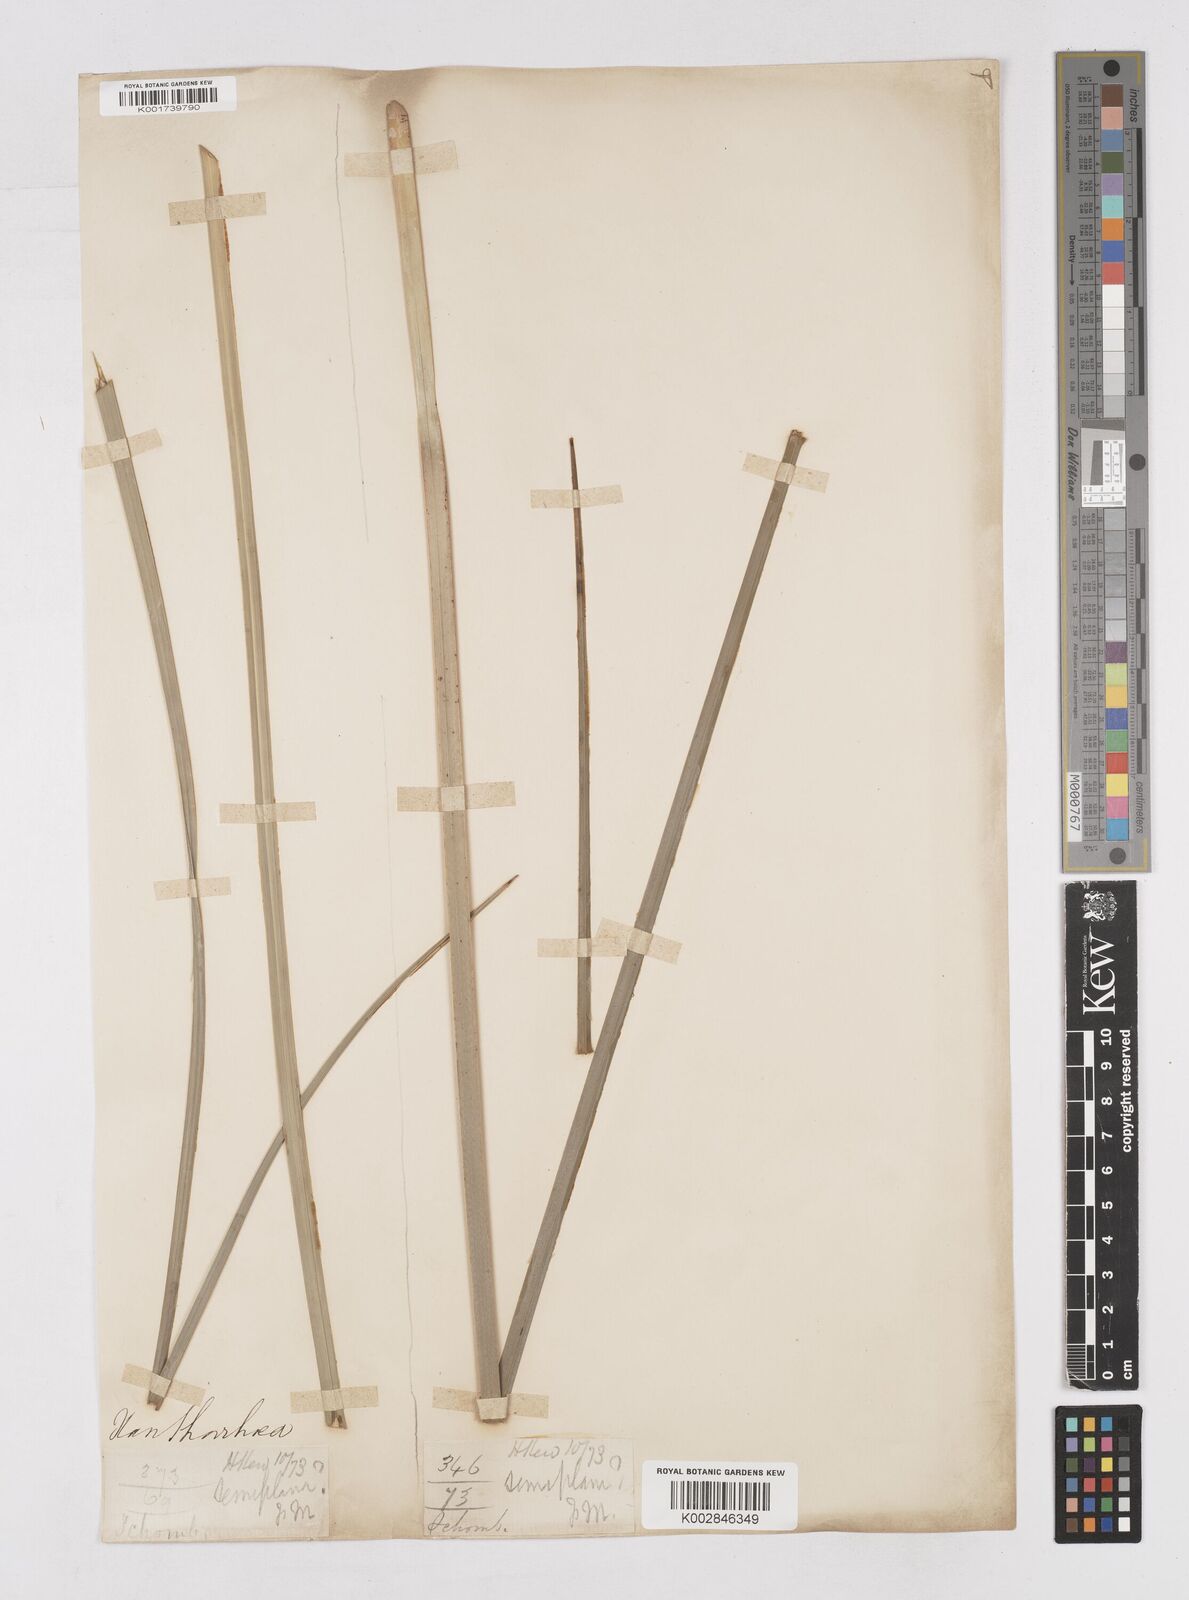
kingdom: Plantae
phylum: Tracheophyta
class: Liliopsida
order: Asparagales
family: Asphodelaceae
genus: Xanthorrhoea
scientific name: Xanthorrhoea
